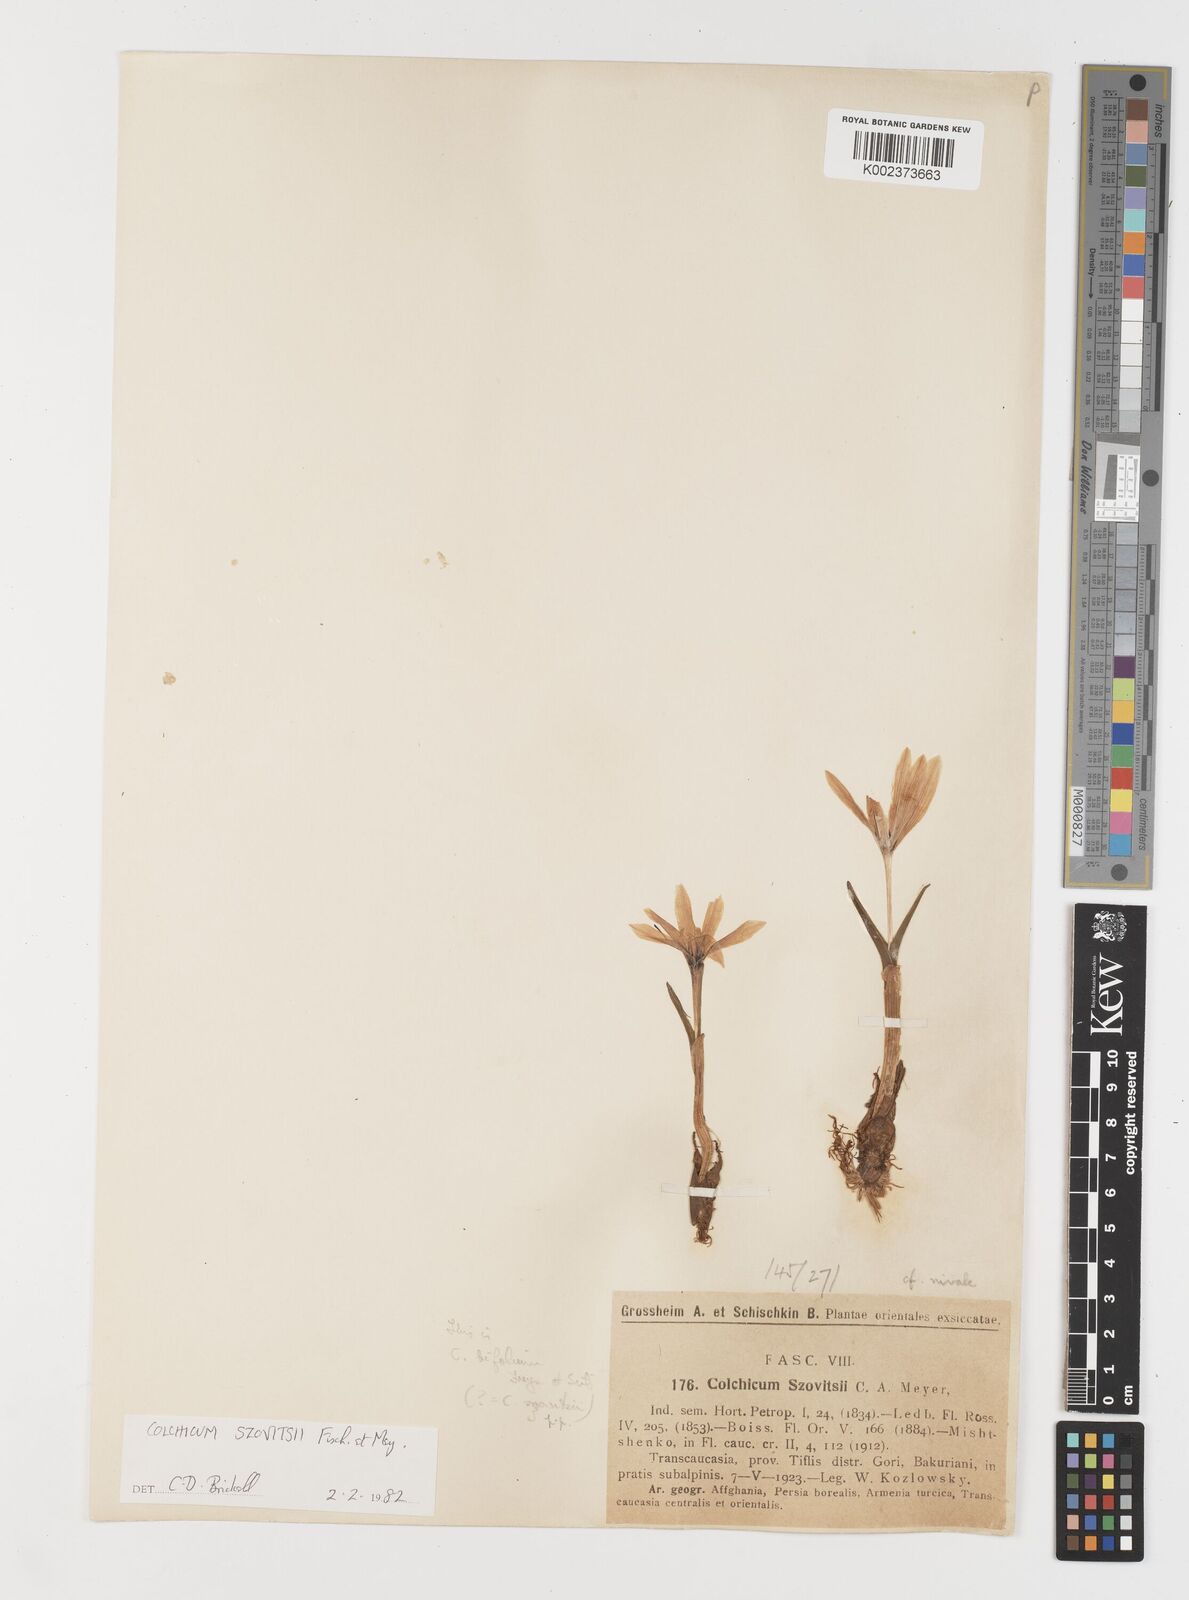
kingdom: Plantae
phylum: Tracheophyta
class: Liliopsida
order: Liliales
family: Colchicaceae
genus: Colchicum
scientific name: Colchicum szovitsii
